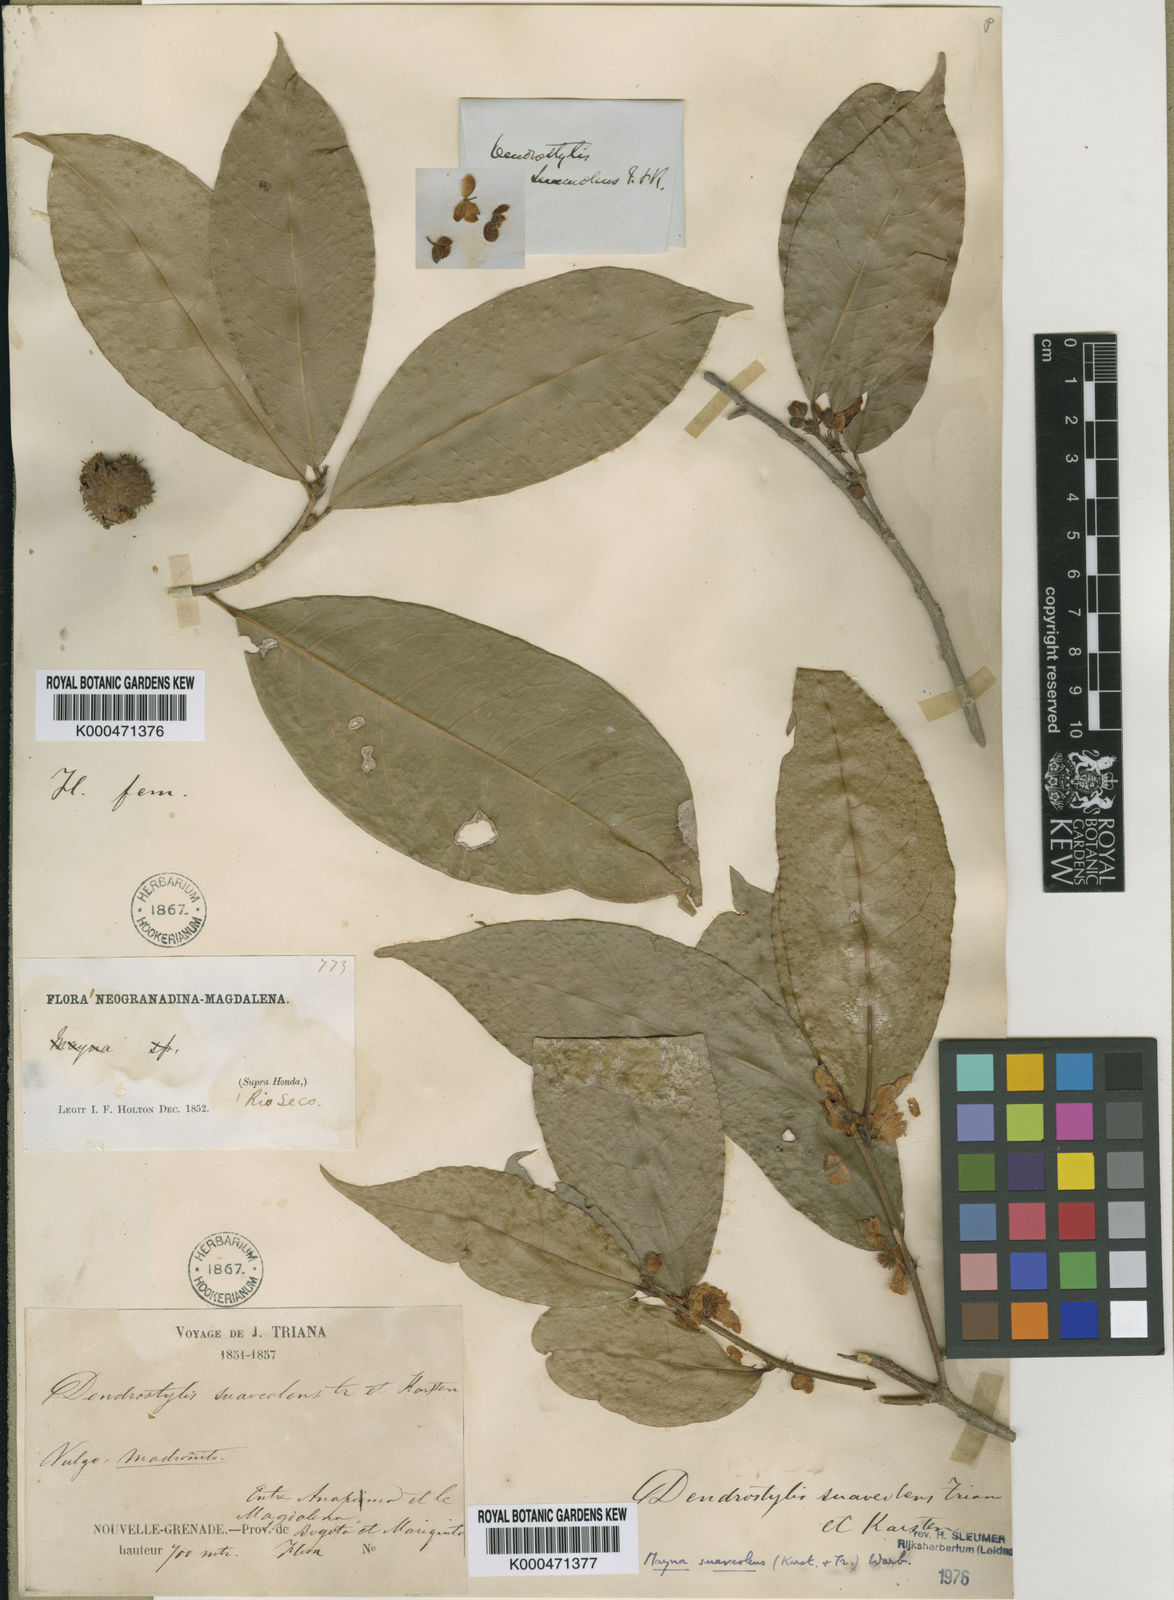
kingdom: Plantae
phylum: Tracheophyta
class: Magnoliopsida
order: Malpighiales
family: Achariaceae
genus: Mayna
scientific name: Mayna suaveolens
